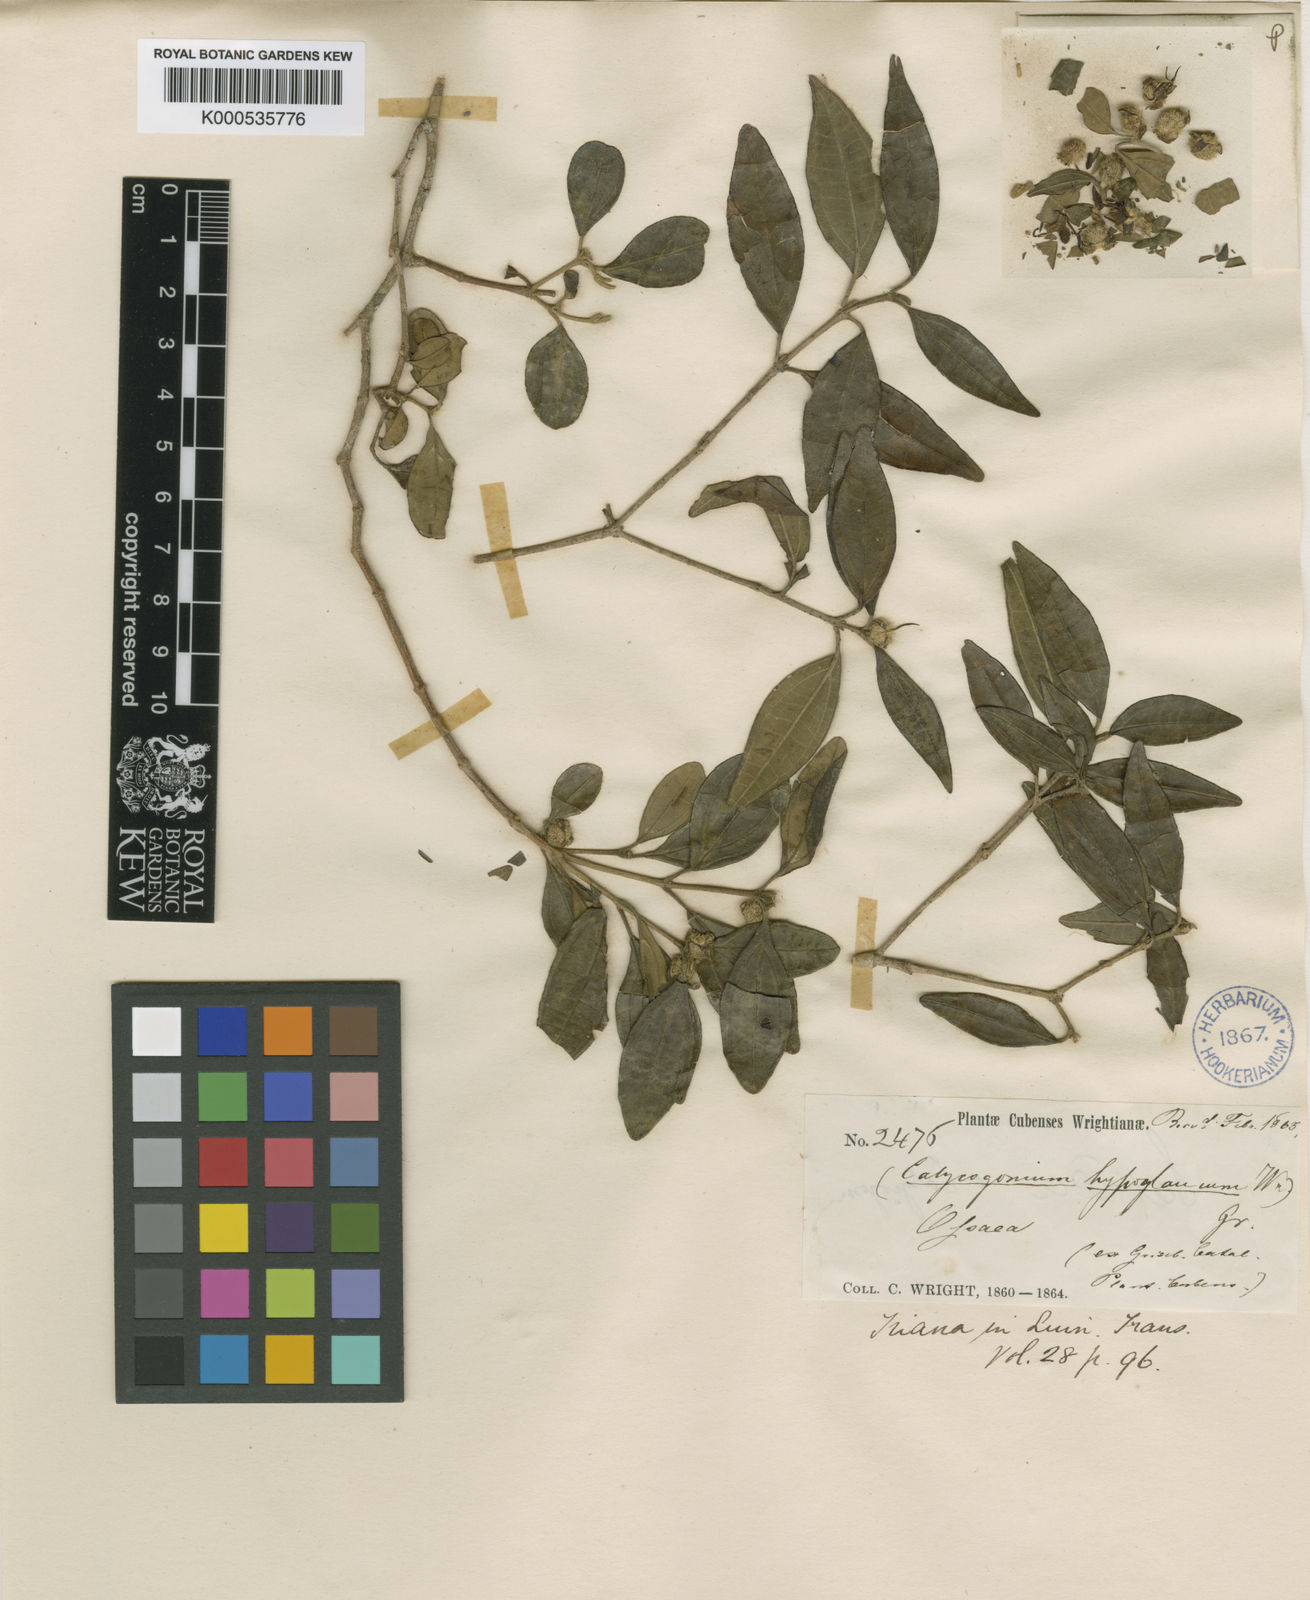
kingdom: Plantae
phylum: Tracheophyta
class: Magnoliopsida
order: Myrtales
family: Melastomataceae
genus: Miconia
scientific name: Miconia hypoglauca
